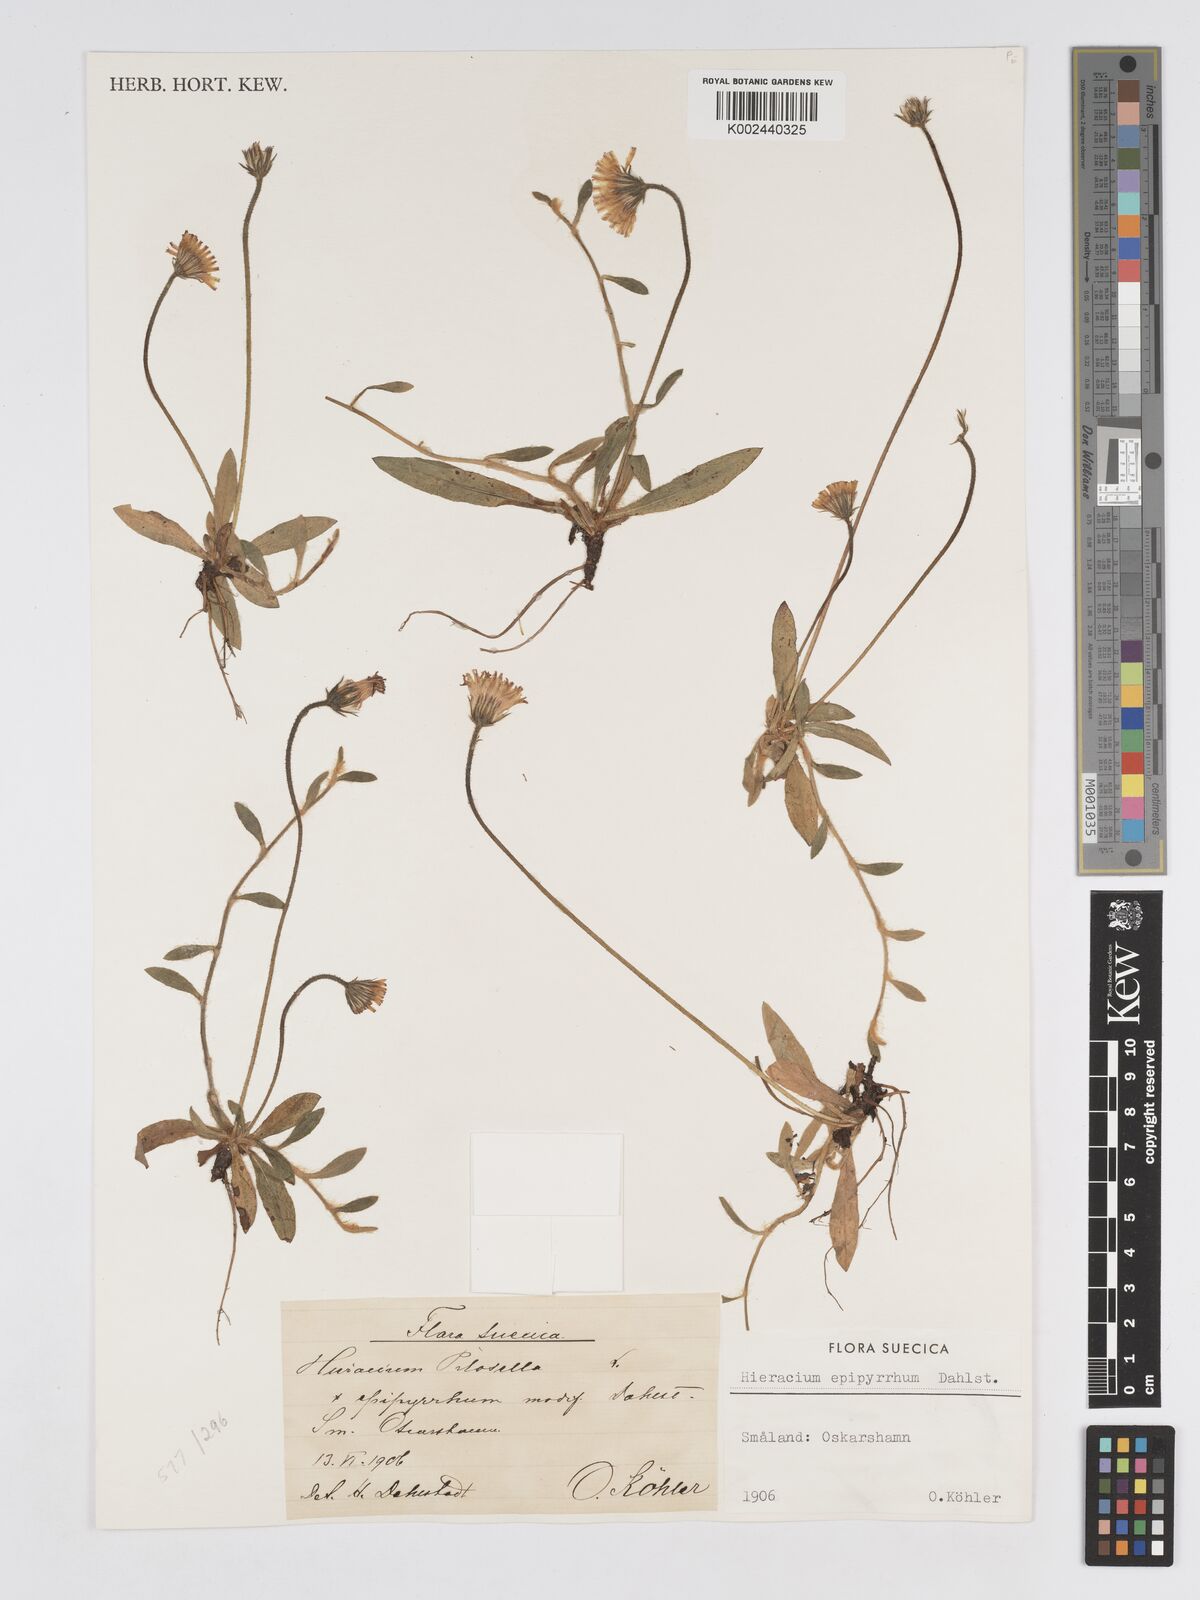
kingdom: Plantae
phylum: Tracheophyta
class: Magnoliopsida
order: Asterales
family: Asteraceae
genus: Pilosella
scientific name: Pilosella officinarum
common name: Mouse-ear hawkweed
